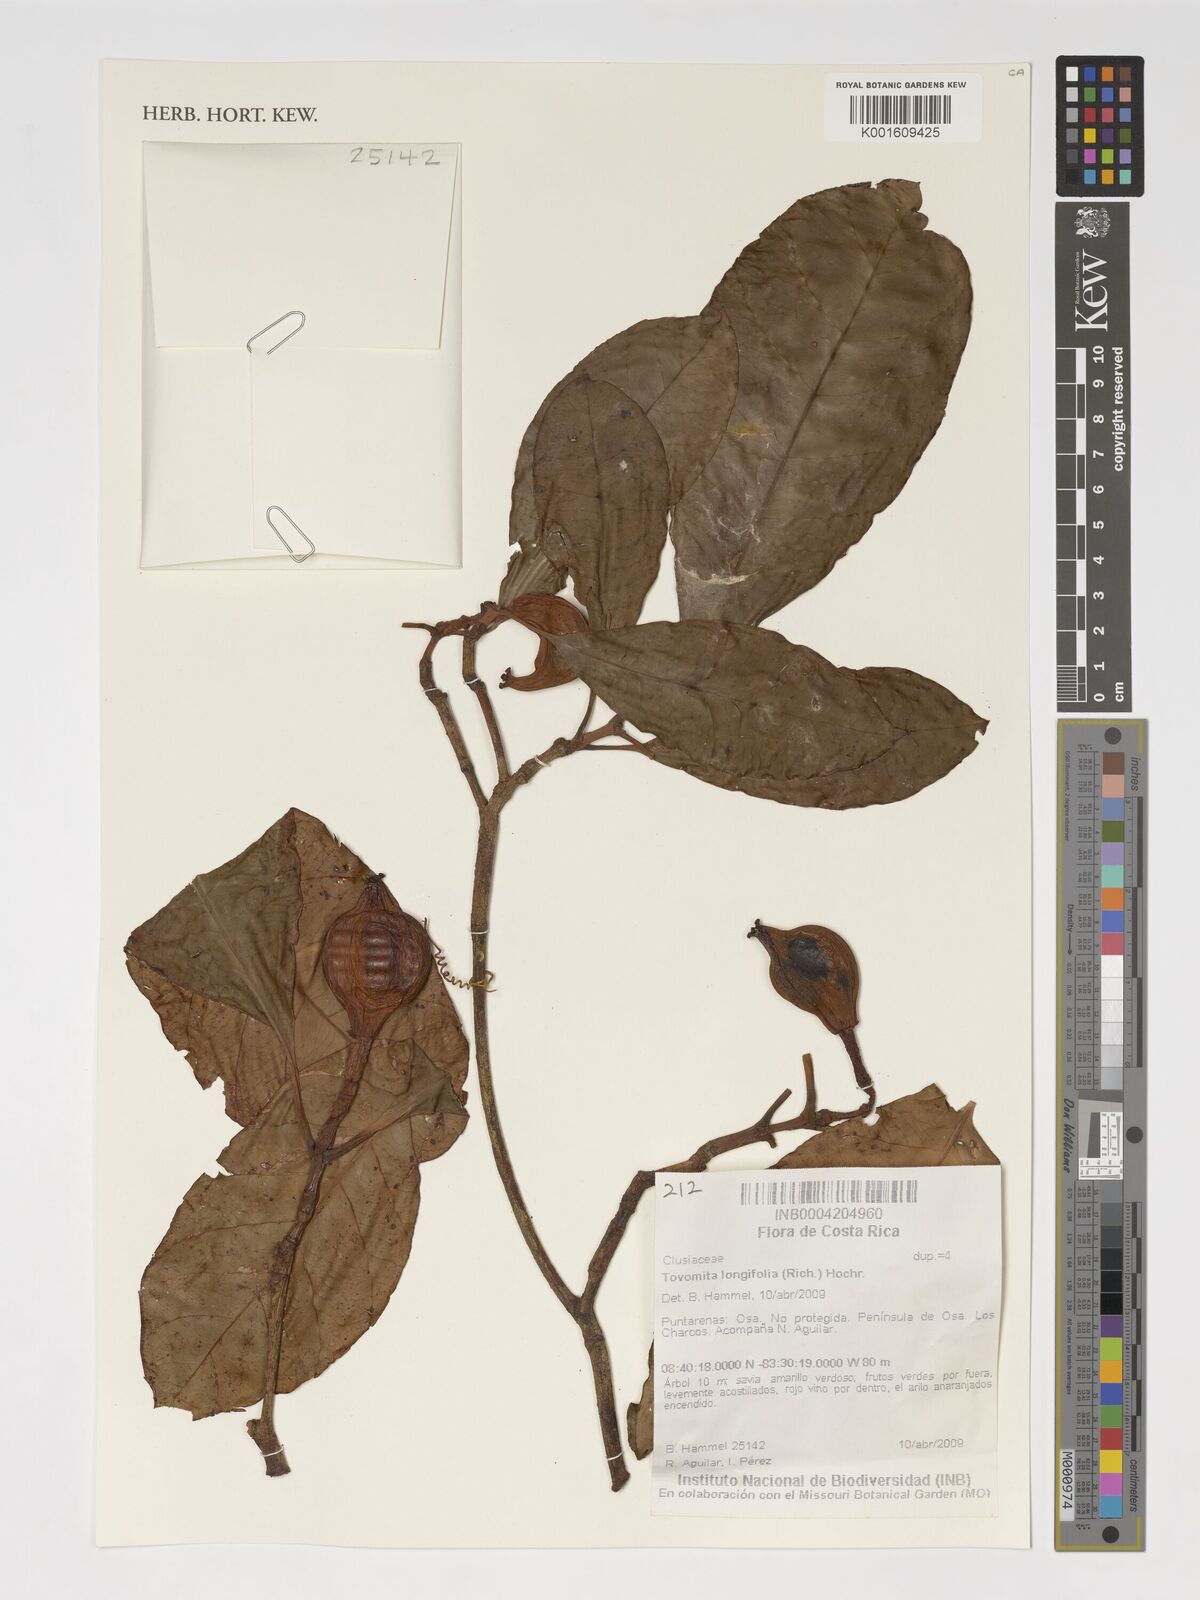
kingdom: Plantae
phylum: Tracheophyta
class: Magnoliopsida
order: Malpighiales
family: Clusiaceae
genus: Tovomita
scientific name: Tovomita longifolia
